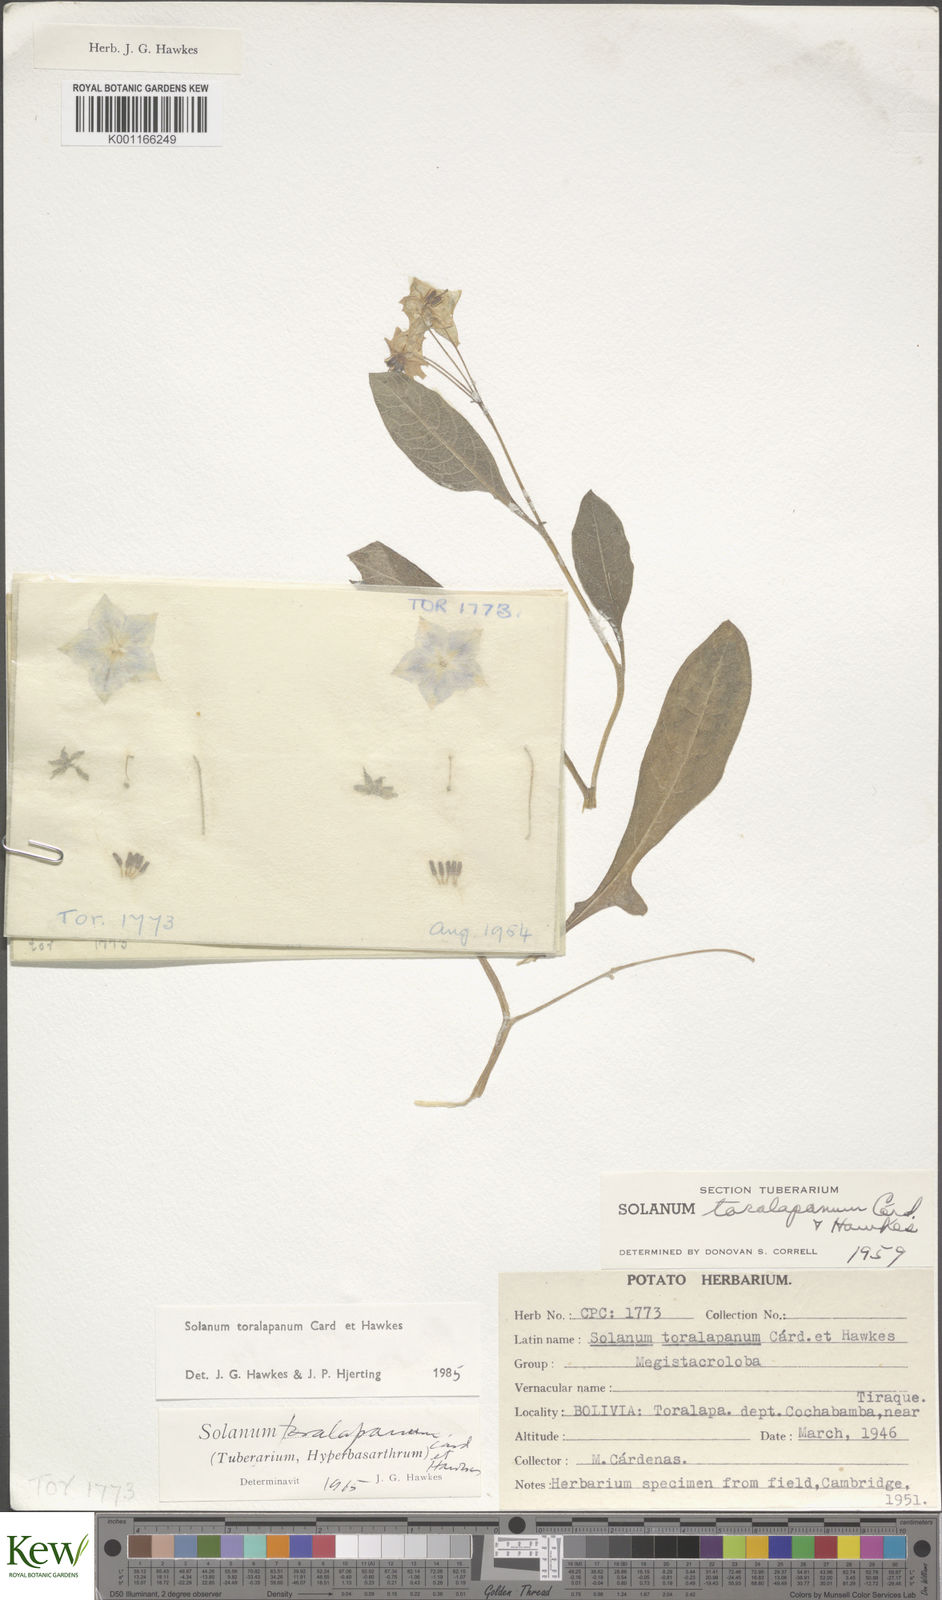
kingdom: Plantae
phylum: Tracheophyta
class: Magnoliopsida
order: Solanales
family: Solanaceae
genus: Solanum
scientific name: Solanum
